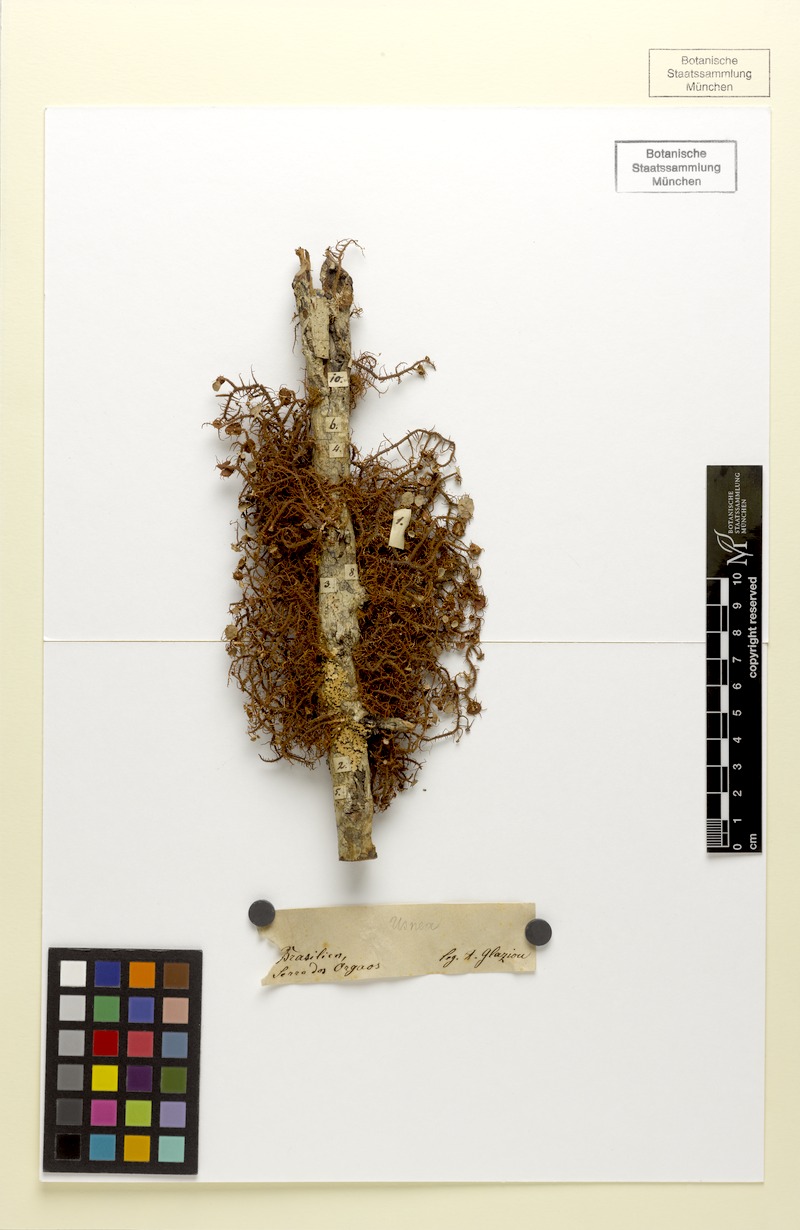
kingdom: Fungi
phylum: Ascomycota
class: Lecanoromycetes
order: Lecanorales
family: Parmeliaceae
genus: Usnea
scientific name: Usnea subelegans
